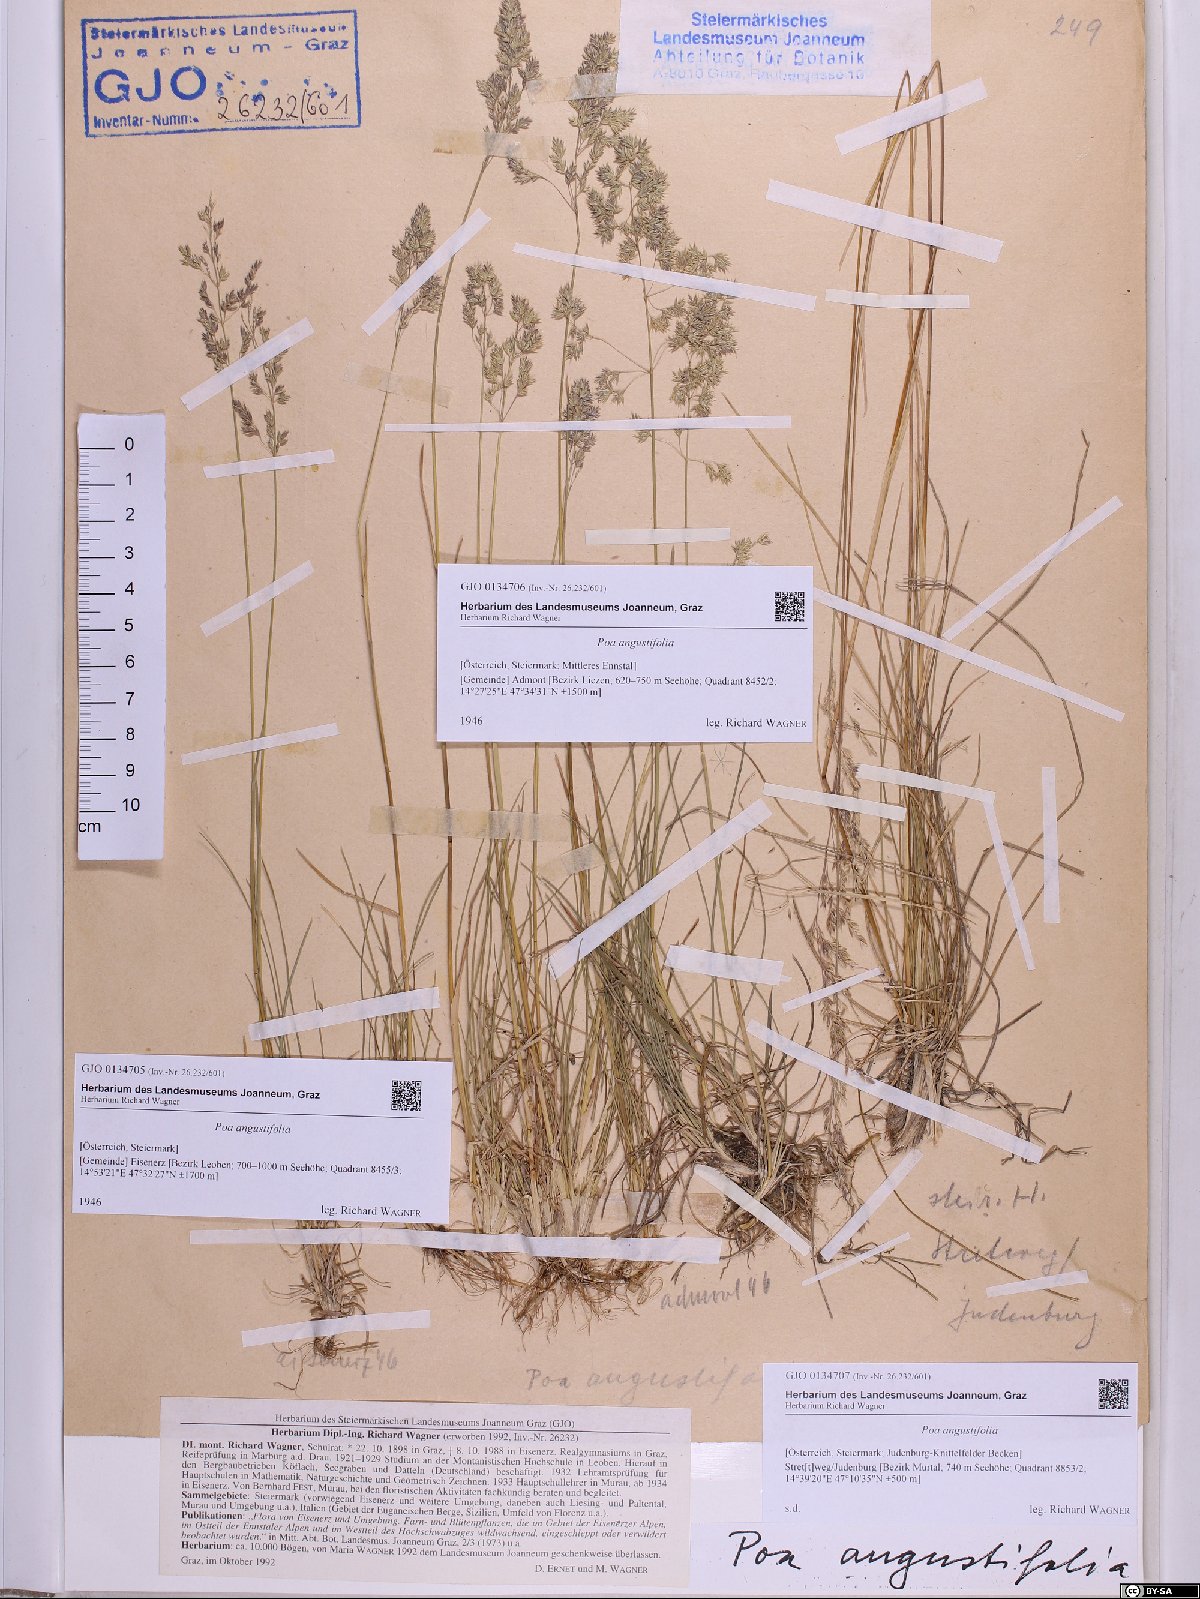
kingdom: Plantae
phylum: Tracheophyta
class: Liliopsida
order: Poales
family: Poaceae
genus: Poa
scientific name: Poa angustifolia
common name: Narrow-leaved meadow-grass
